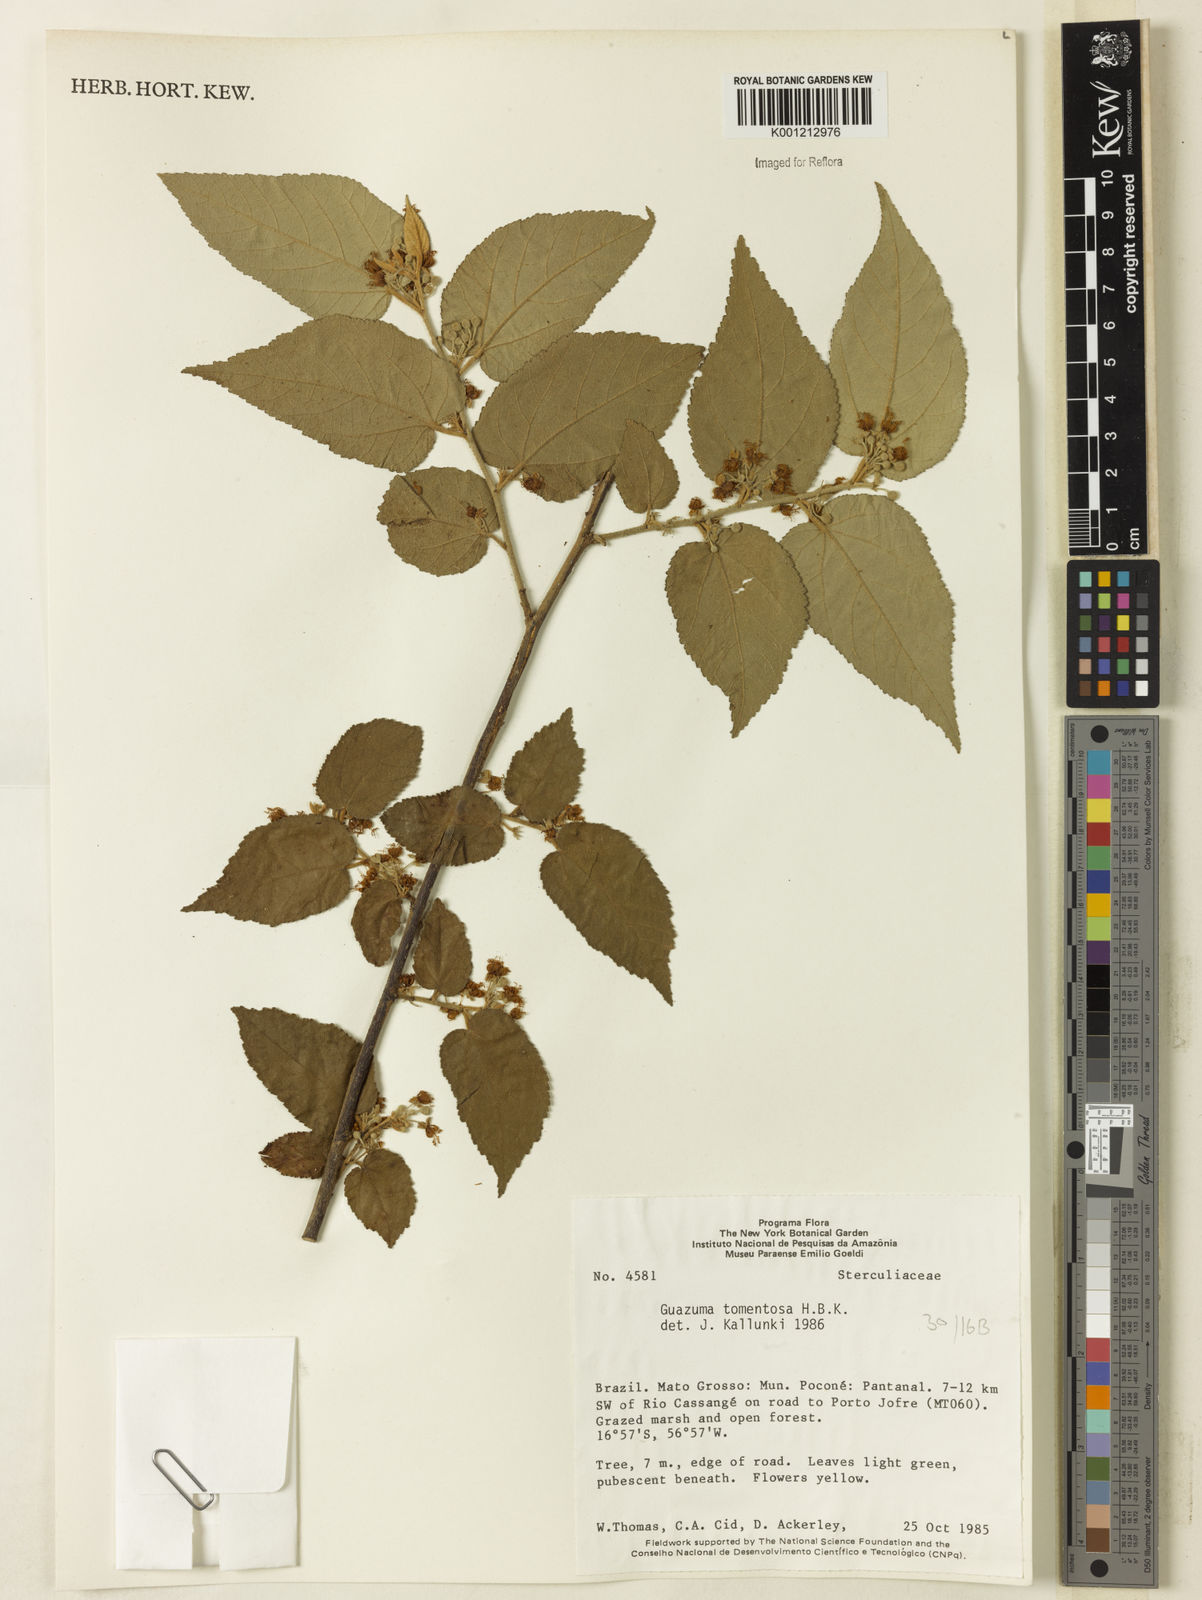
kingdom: Plantae
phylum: Tracheophyta
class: Magnoliopsida
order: Malvales
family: Malvaceae
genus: Guazuma
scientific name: Guazuma ulmifolia
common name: Bastard-cedar
